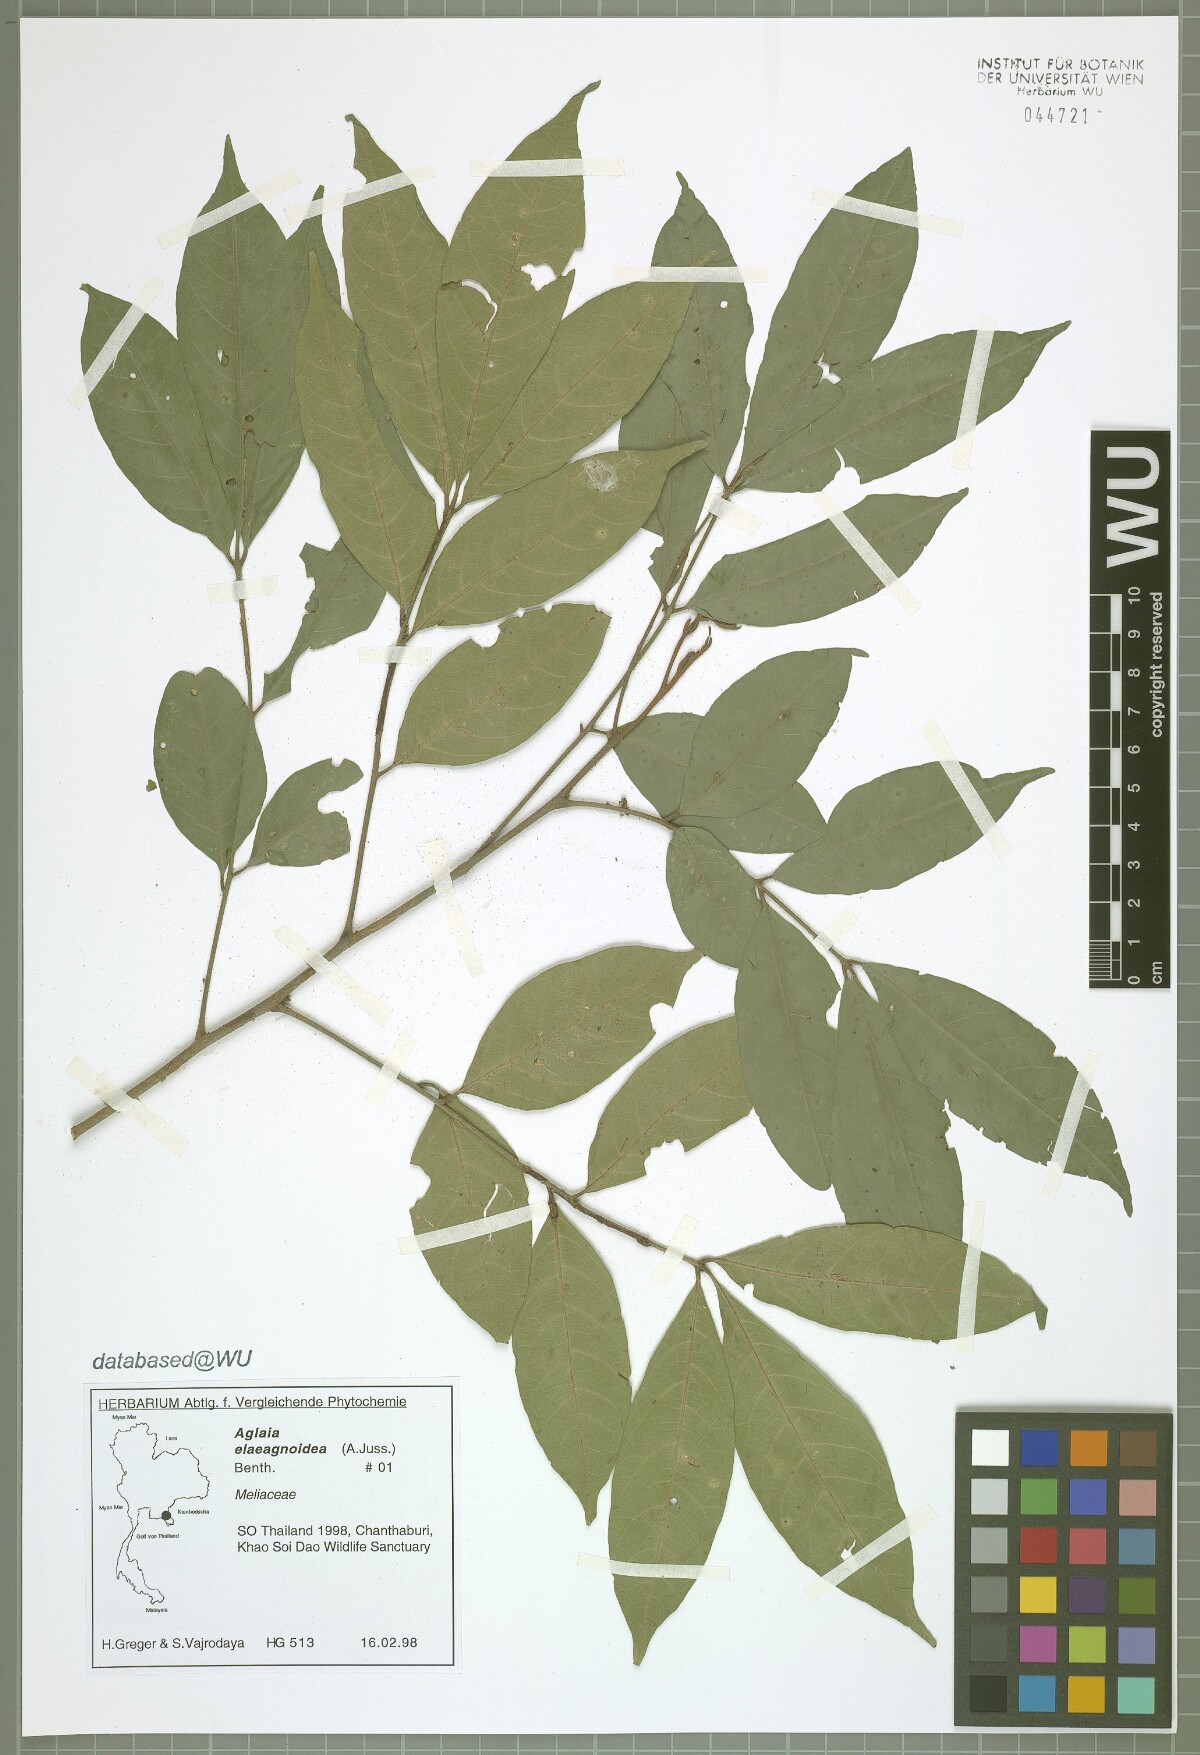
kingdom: Plantae
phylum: Tracheophyta
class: Magnoliopsida
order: Sapindales
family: Meliaceae
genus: Aglaia
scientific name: Aglaia elaeagnoidea
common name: Droopyleaf
